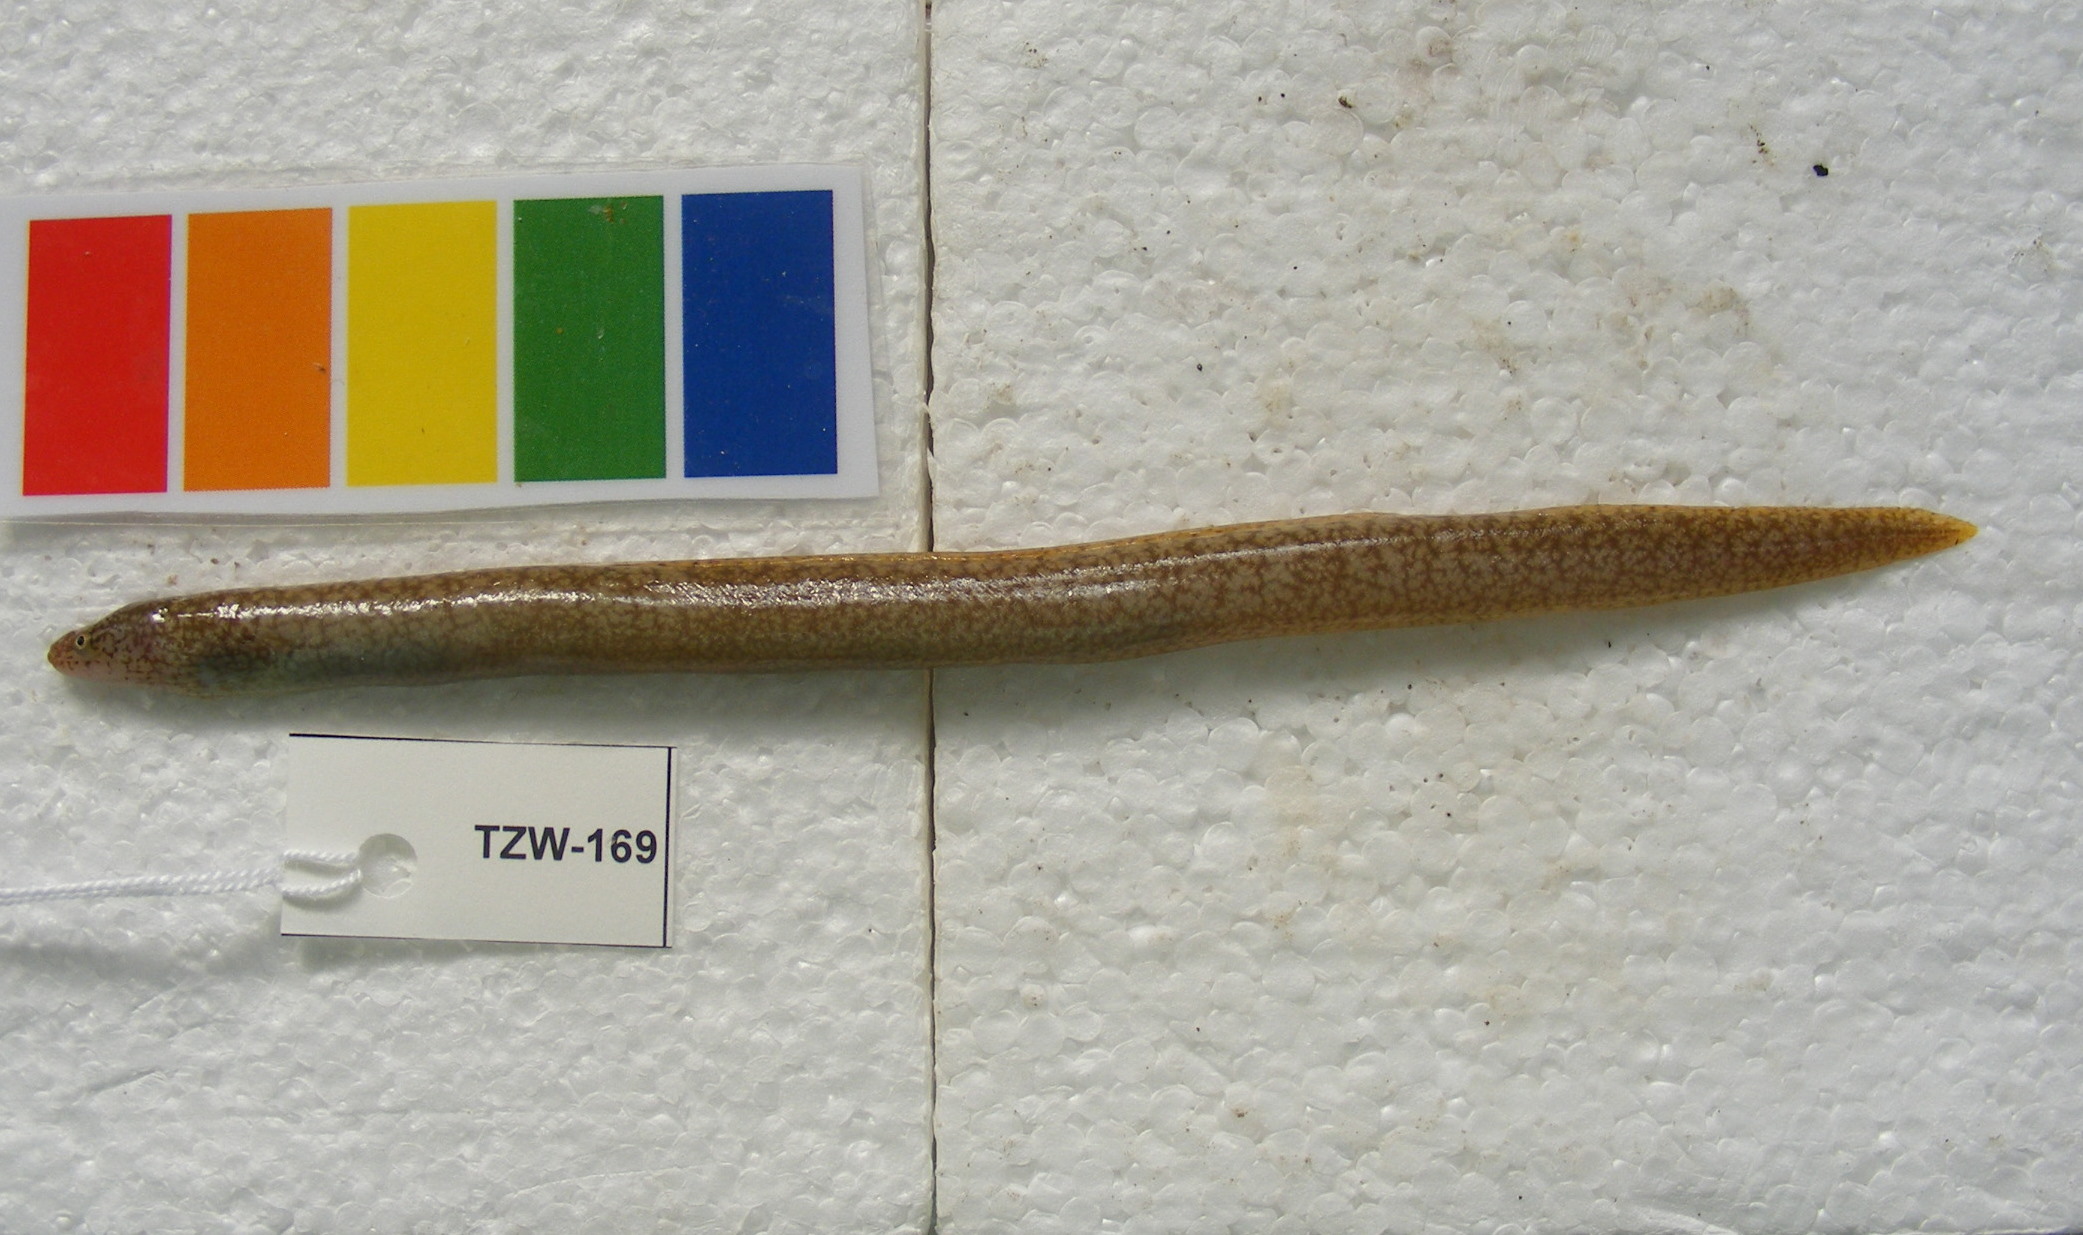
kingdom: Animalia
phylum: Chordata
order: Anguilliformes
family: Muraenidae
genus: Gymnothorax
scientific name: Gymnothorax undulatus
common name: Leopard moray
